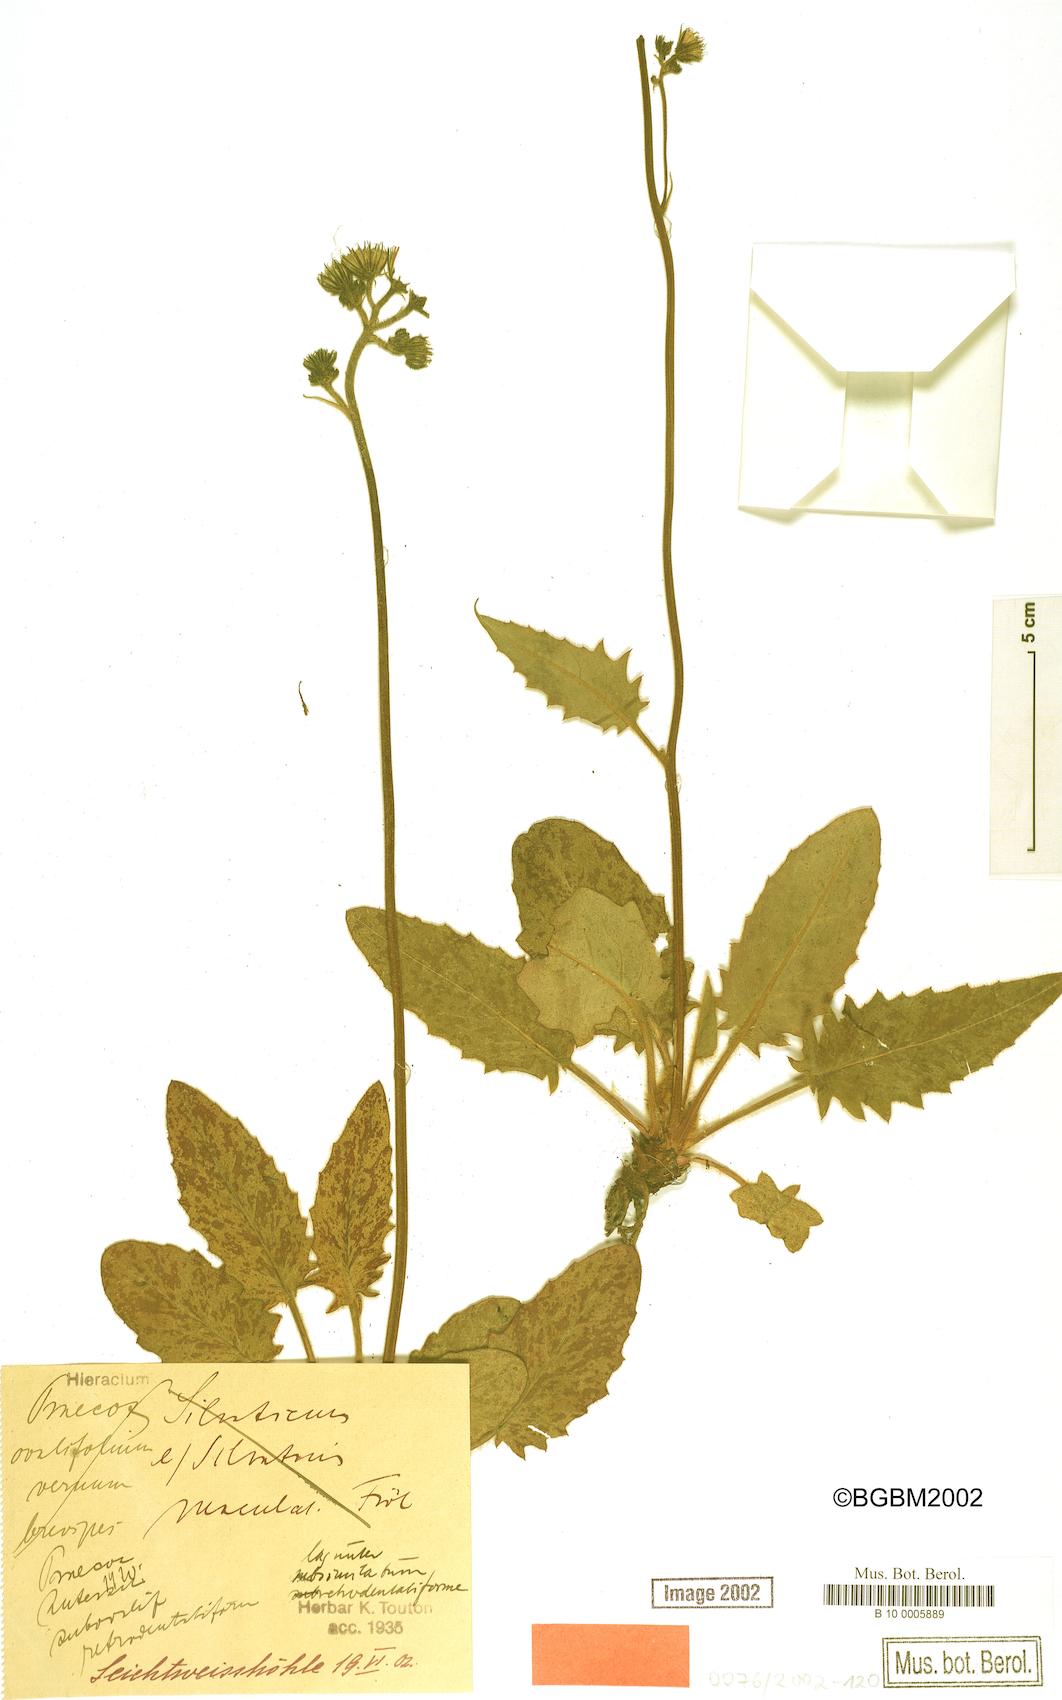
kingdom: Plantae
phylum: Tracheophyta
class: Magnoliopsida
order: Asterales
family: Asteraceae
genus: Hieracium
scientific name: Hieracium praecox
